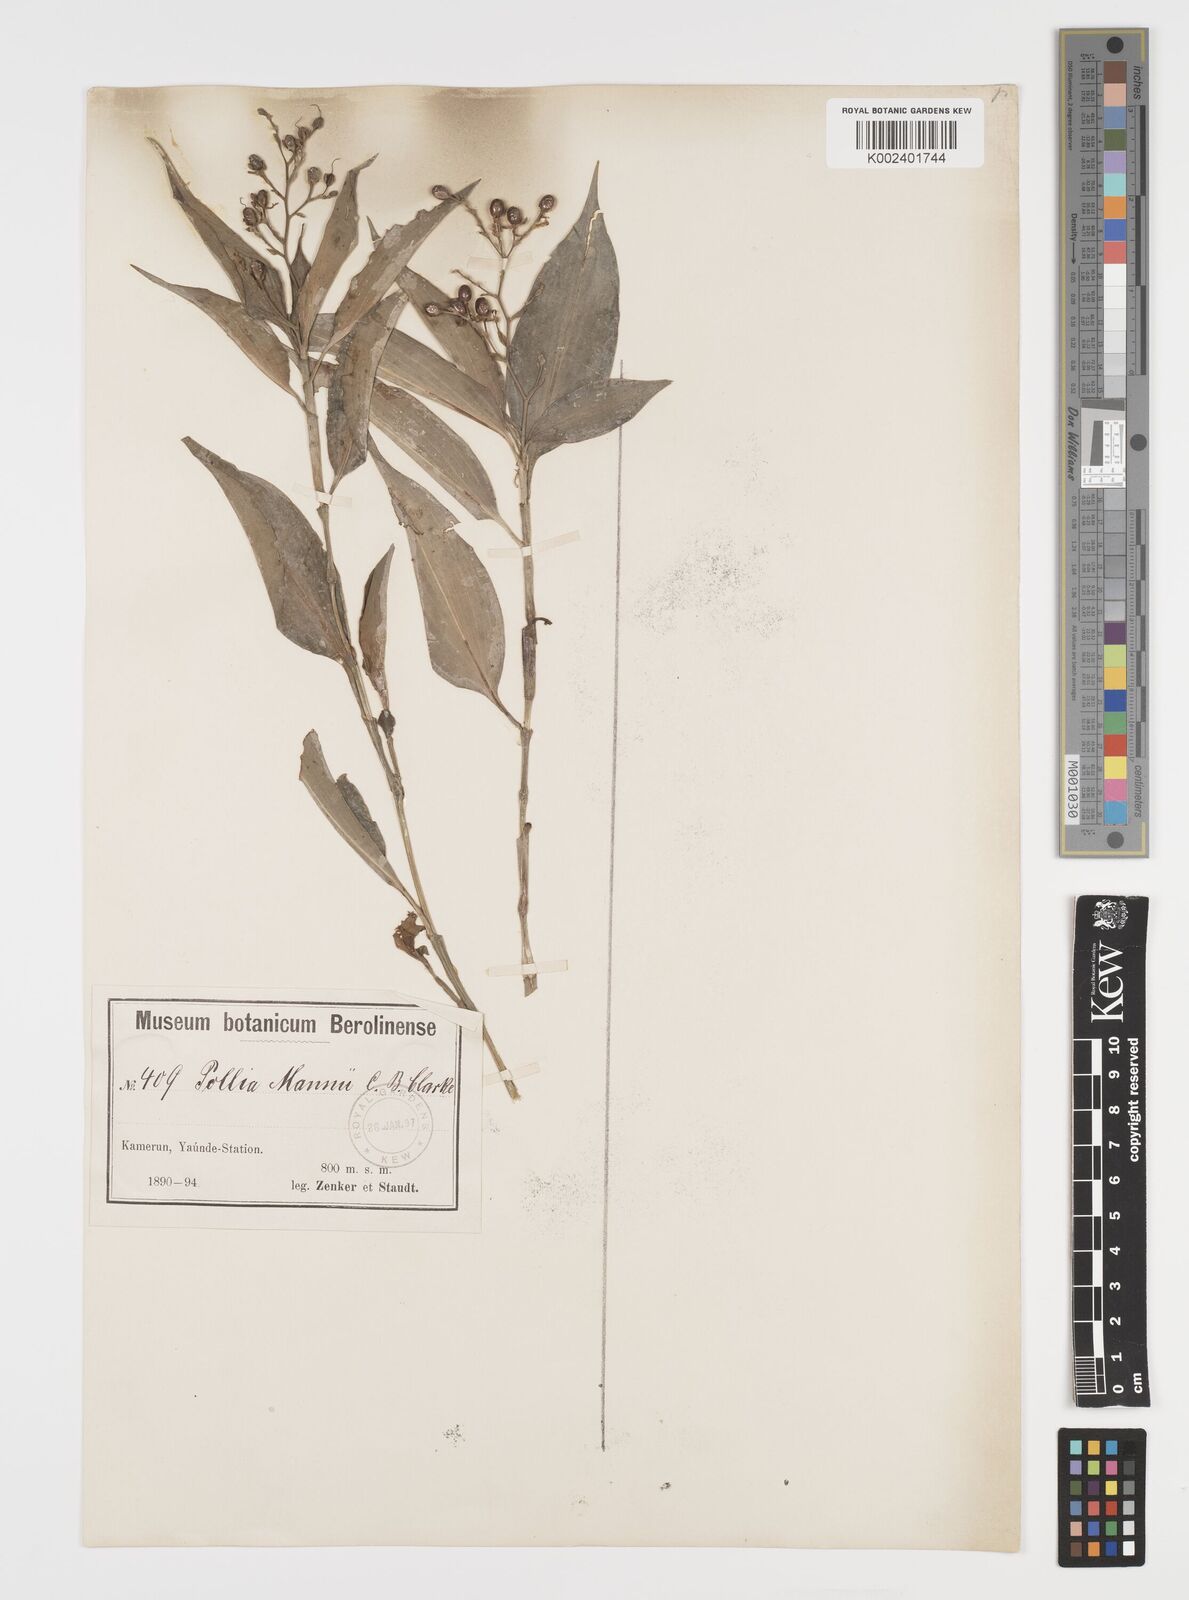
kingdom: Plantae
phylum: Tracheophyta
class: Liliopsida
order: Commelinales
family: Commelinaceae
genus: Pollia
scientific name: Pollia mannii
